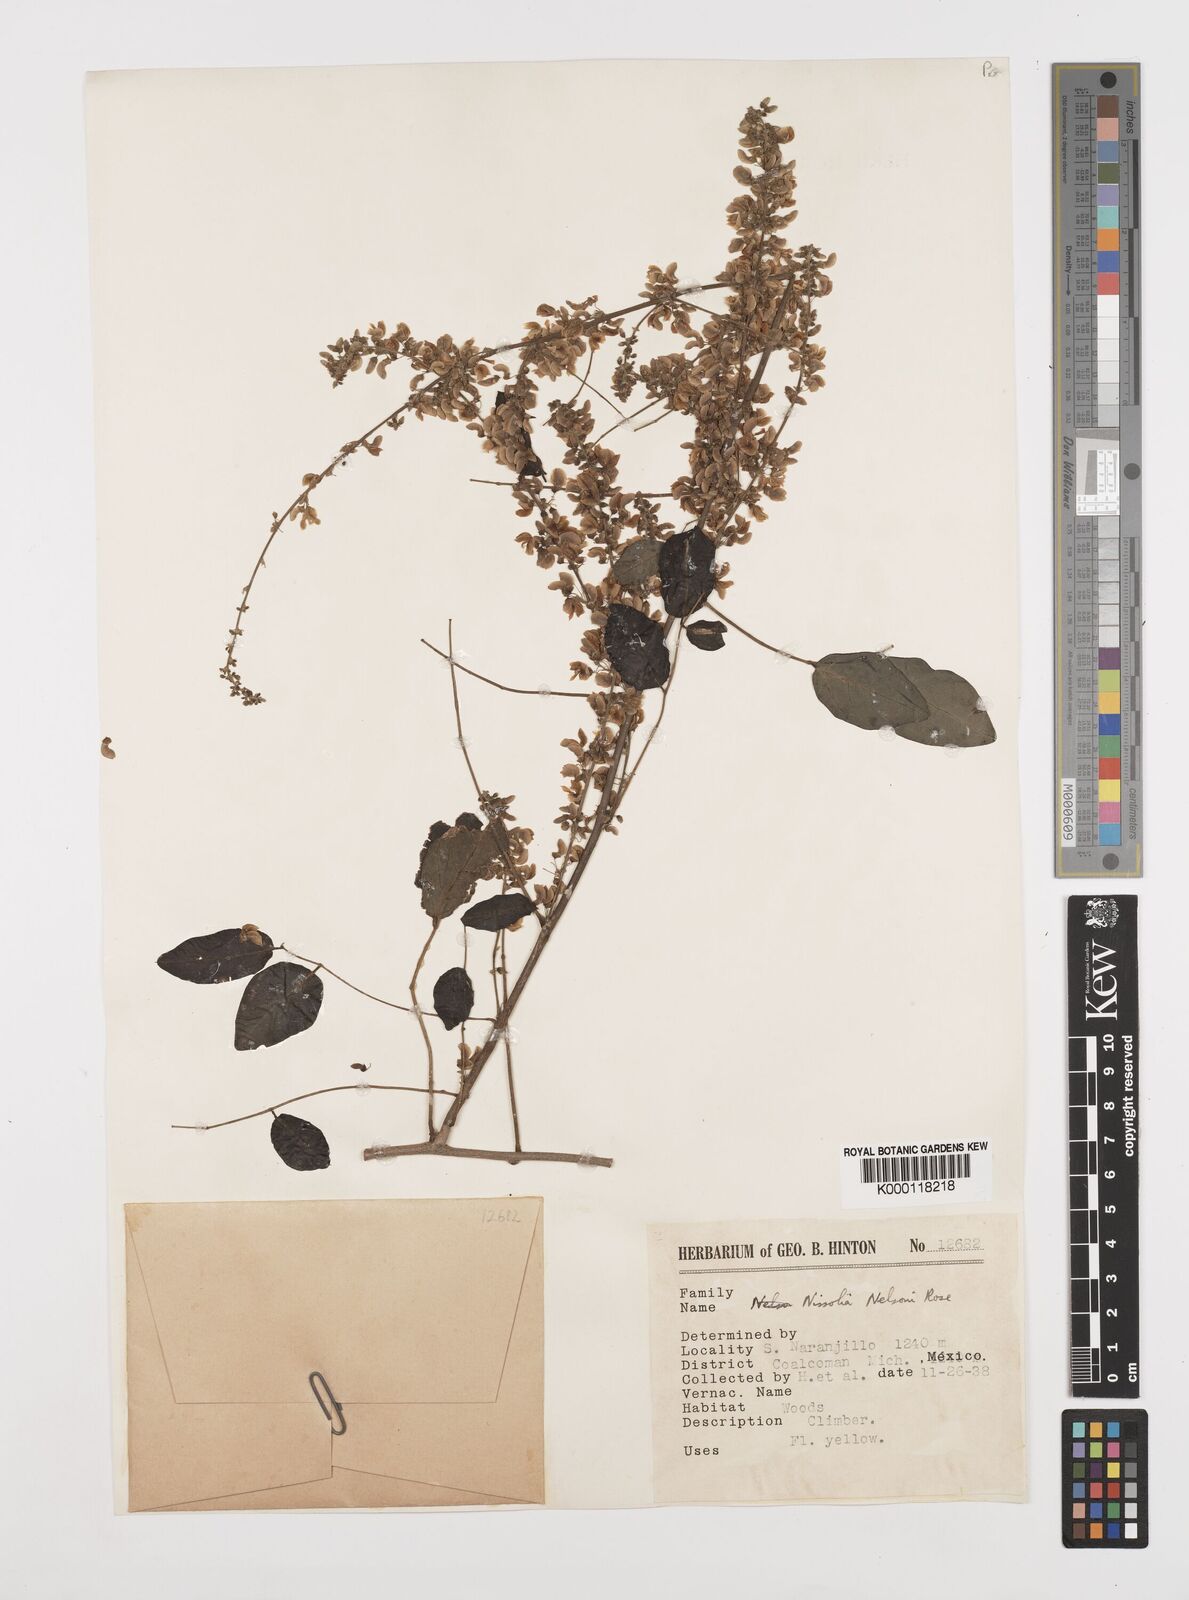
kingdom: Plantae
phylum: Tracheophyta
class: Magnoliopsida
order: Fabales
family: Fabaceae
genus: Nissolia
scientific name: Nissolia fruticosa
